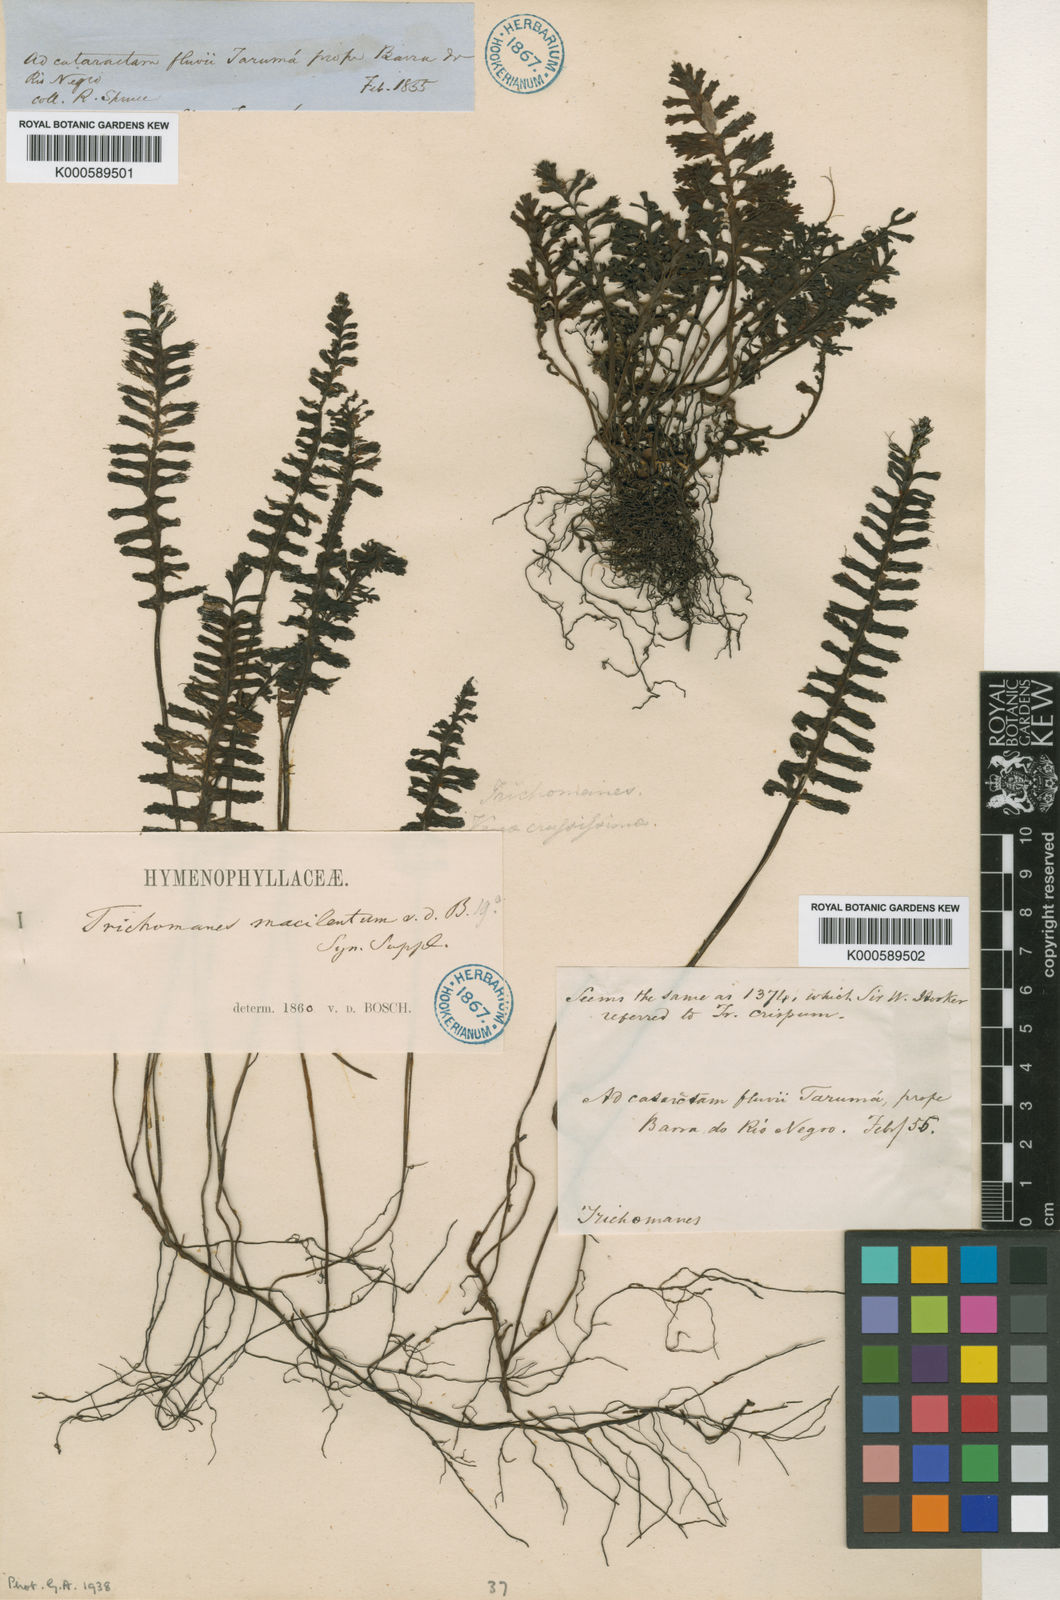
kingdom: Plantae
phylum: Tracheophyta
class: Polypodiopsida
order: Hymenophyllales
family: Hymenophyllaceae
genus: Trichomanes
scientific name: Trichomanes macilentum
